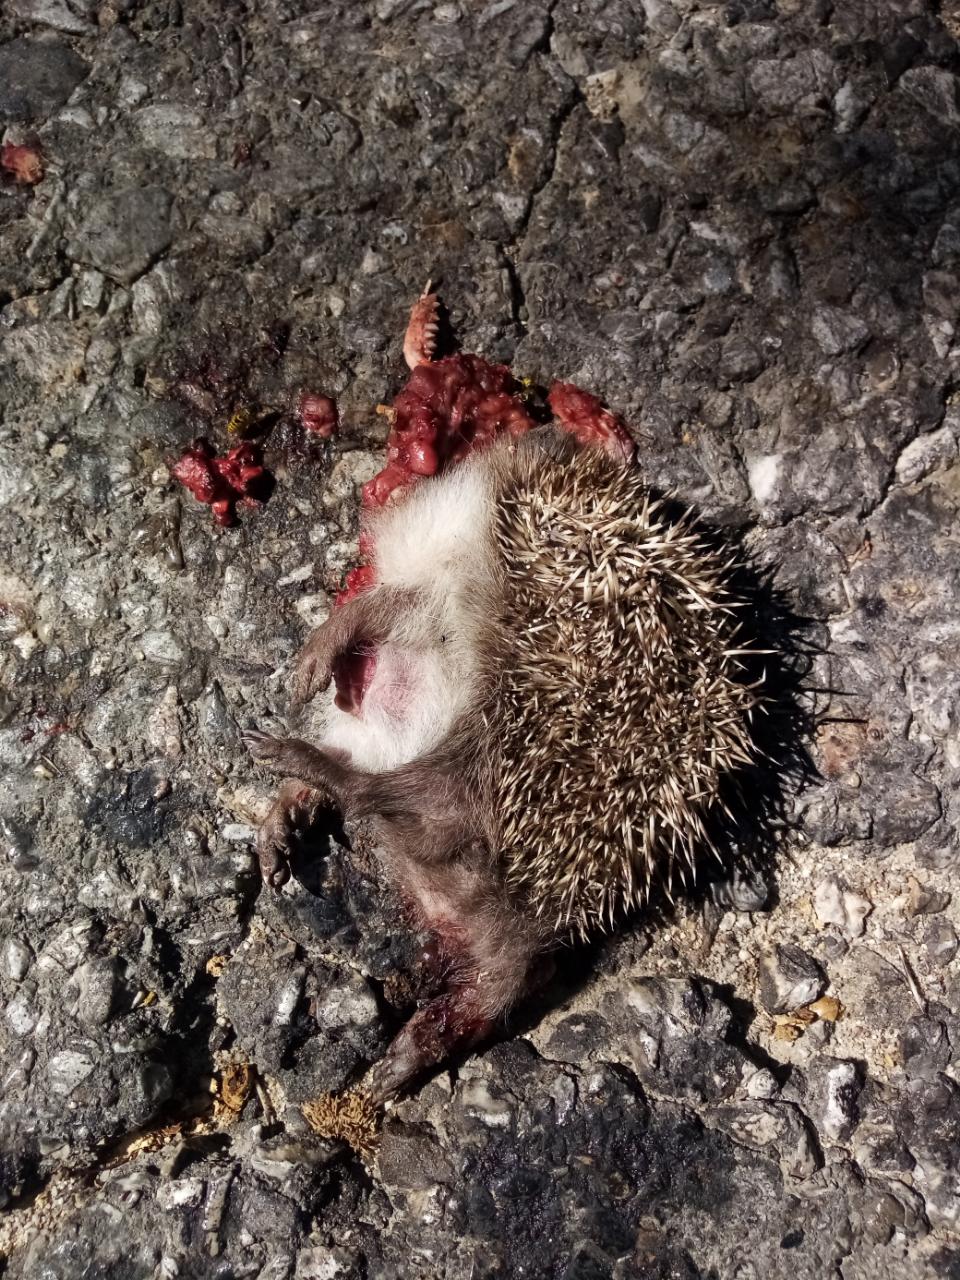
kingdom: Animalia
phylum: Chordata
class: Mammalia
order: Erinaceomorpha
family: Erinaceidae
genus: Erinaceus
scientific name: Erinaceus
